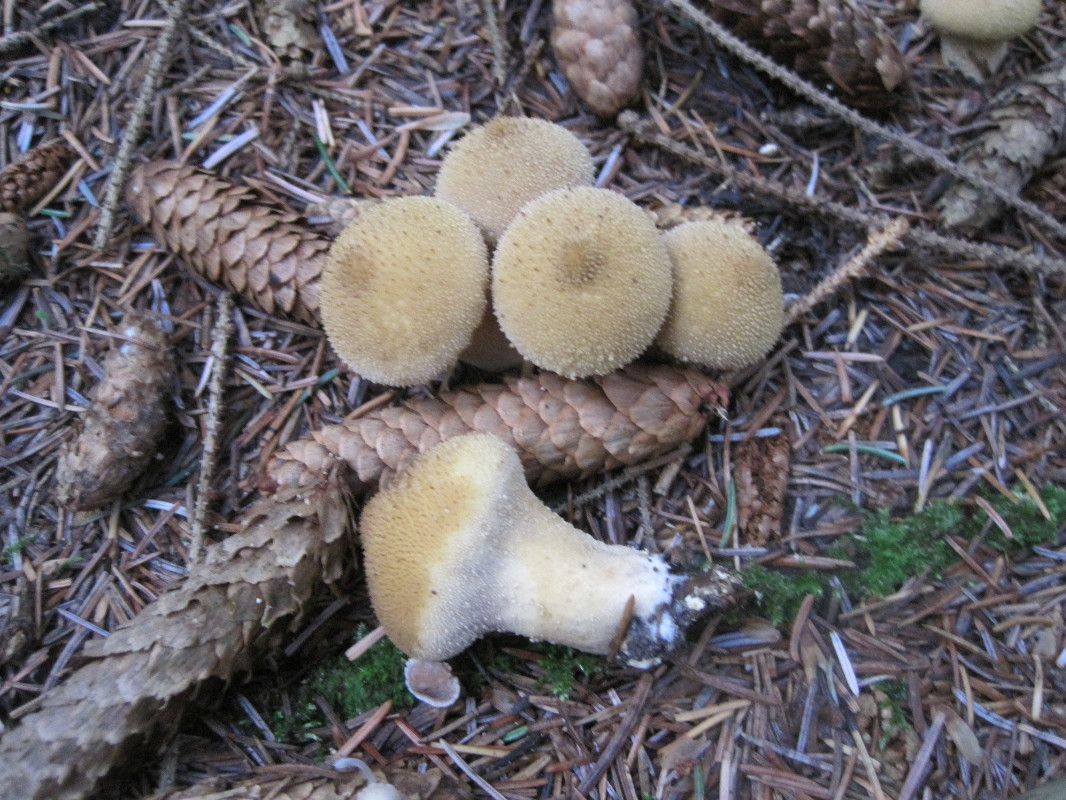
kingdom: Fungi
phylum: Basidiomycota
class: Agaricomycetes
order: Agaricales
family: Lycoperdaceae
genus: Lycoperdon
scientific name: Lycoperdon perlatum
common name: krystal-støvbold
